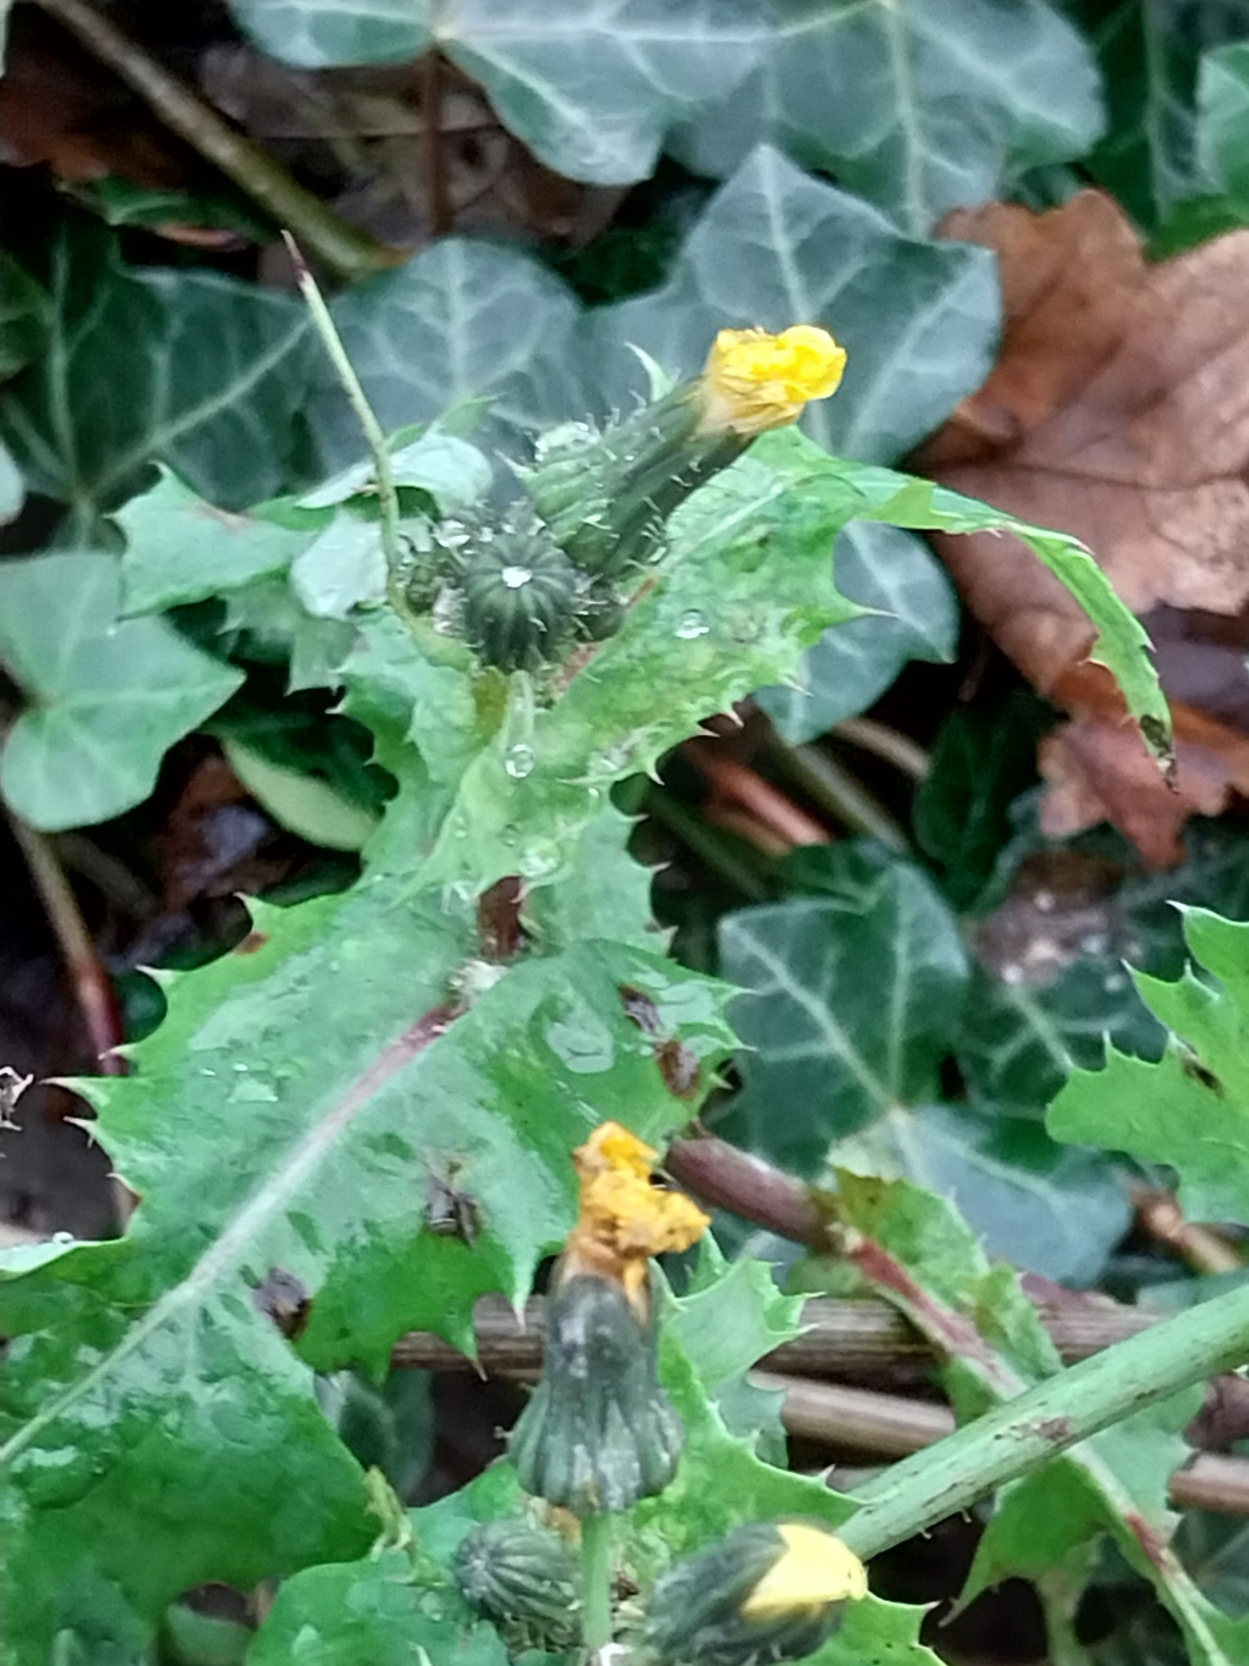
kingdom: Plantae
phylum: Tracheophyta
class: Magnoliopsida
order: Asterales
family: Asteraceae
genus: Sonchus
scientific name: Sonchus asper
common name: Ru svinemælk
